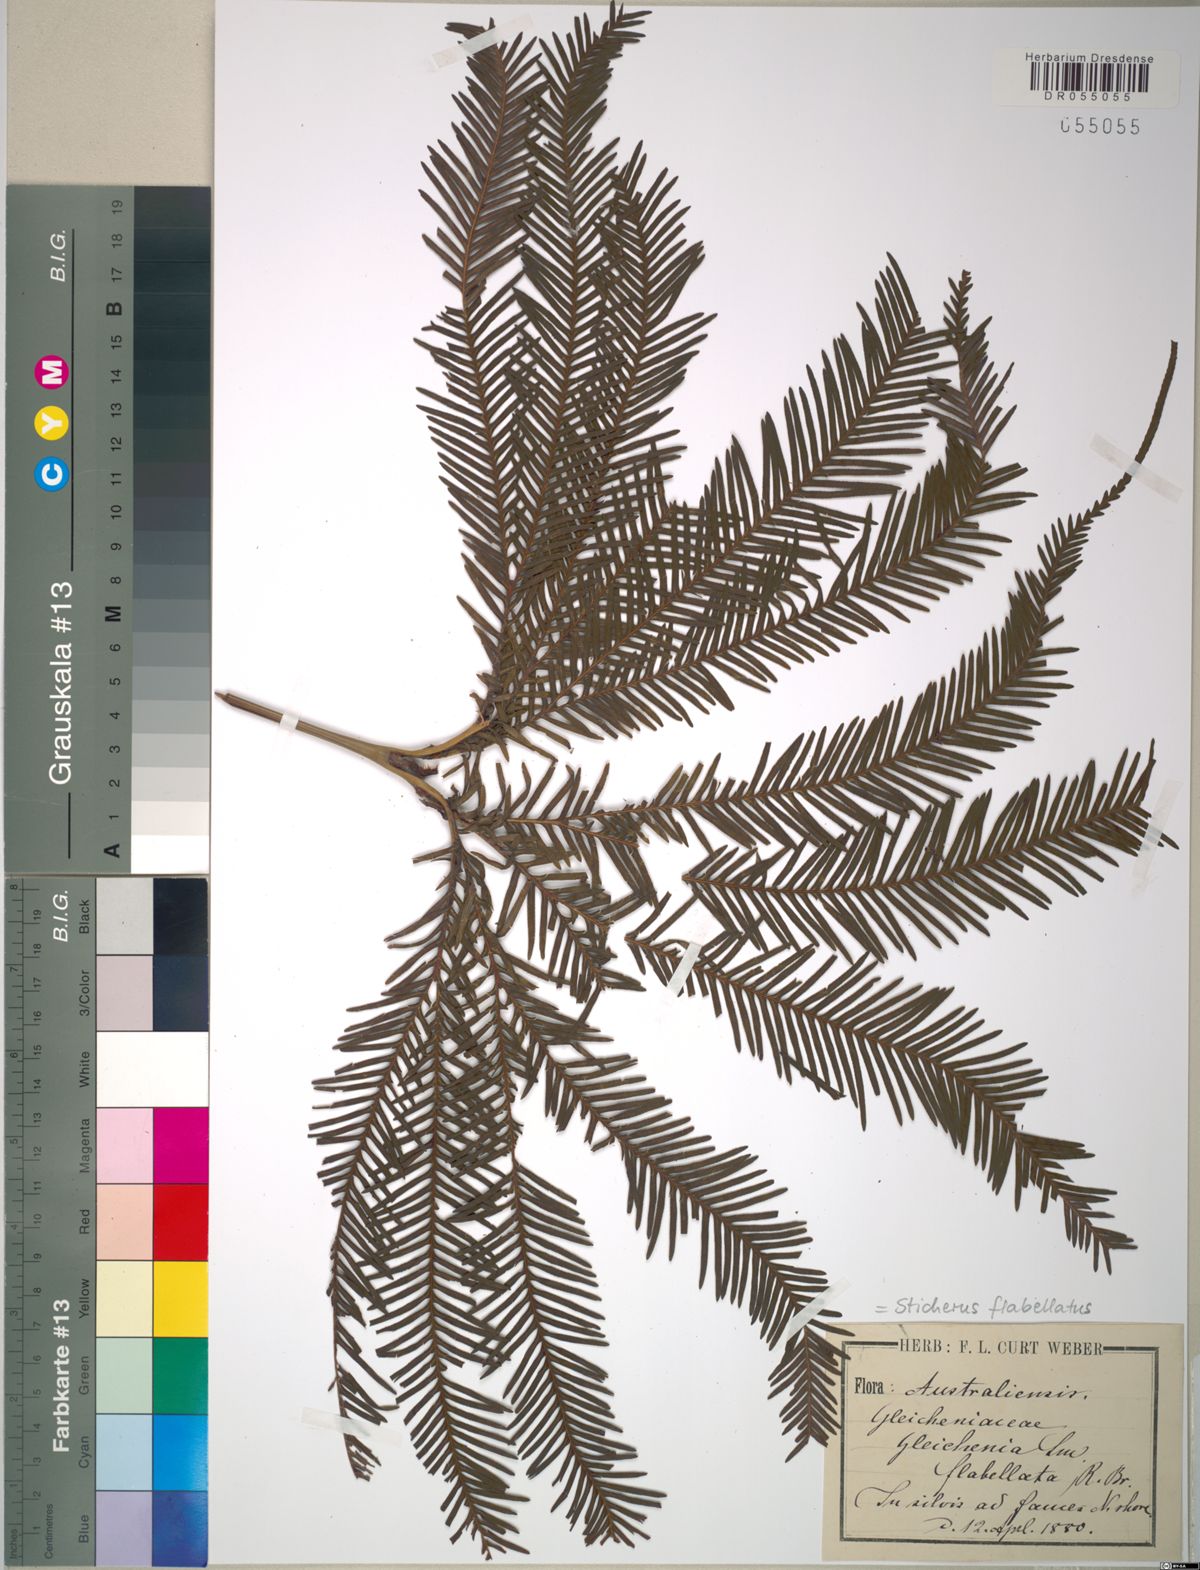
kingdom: Plantae
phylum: Tracheophyta
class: Polypodiopsida
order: Gleicheniales
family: Gleicheniaceae
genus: Sticherus
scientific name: Sticherus flabellatus
